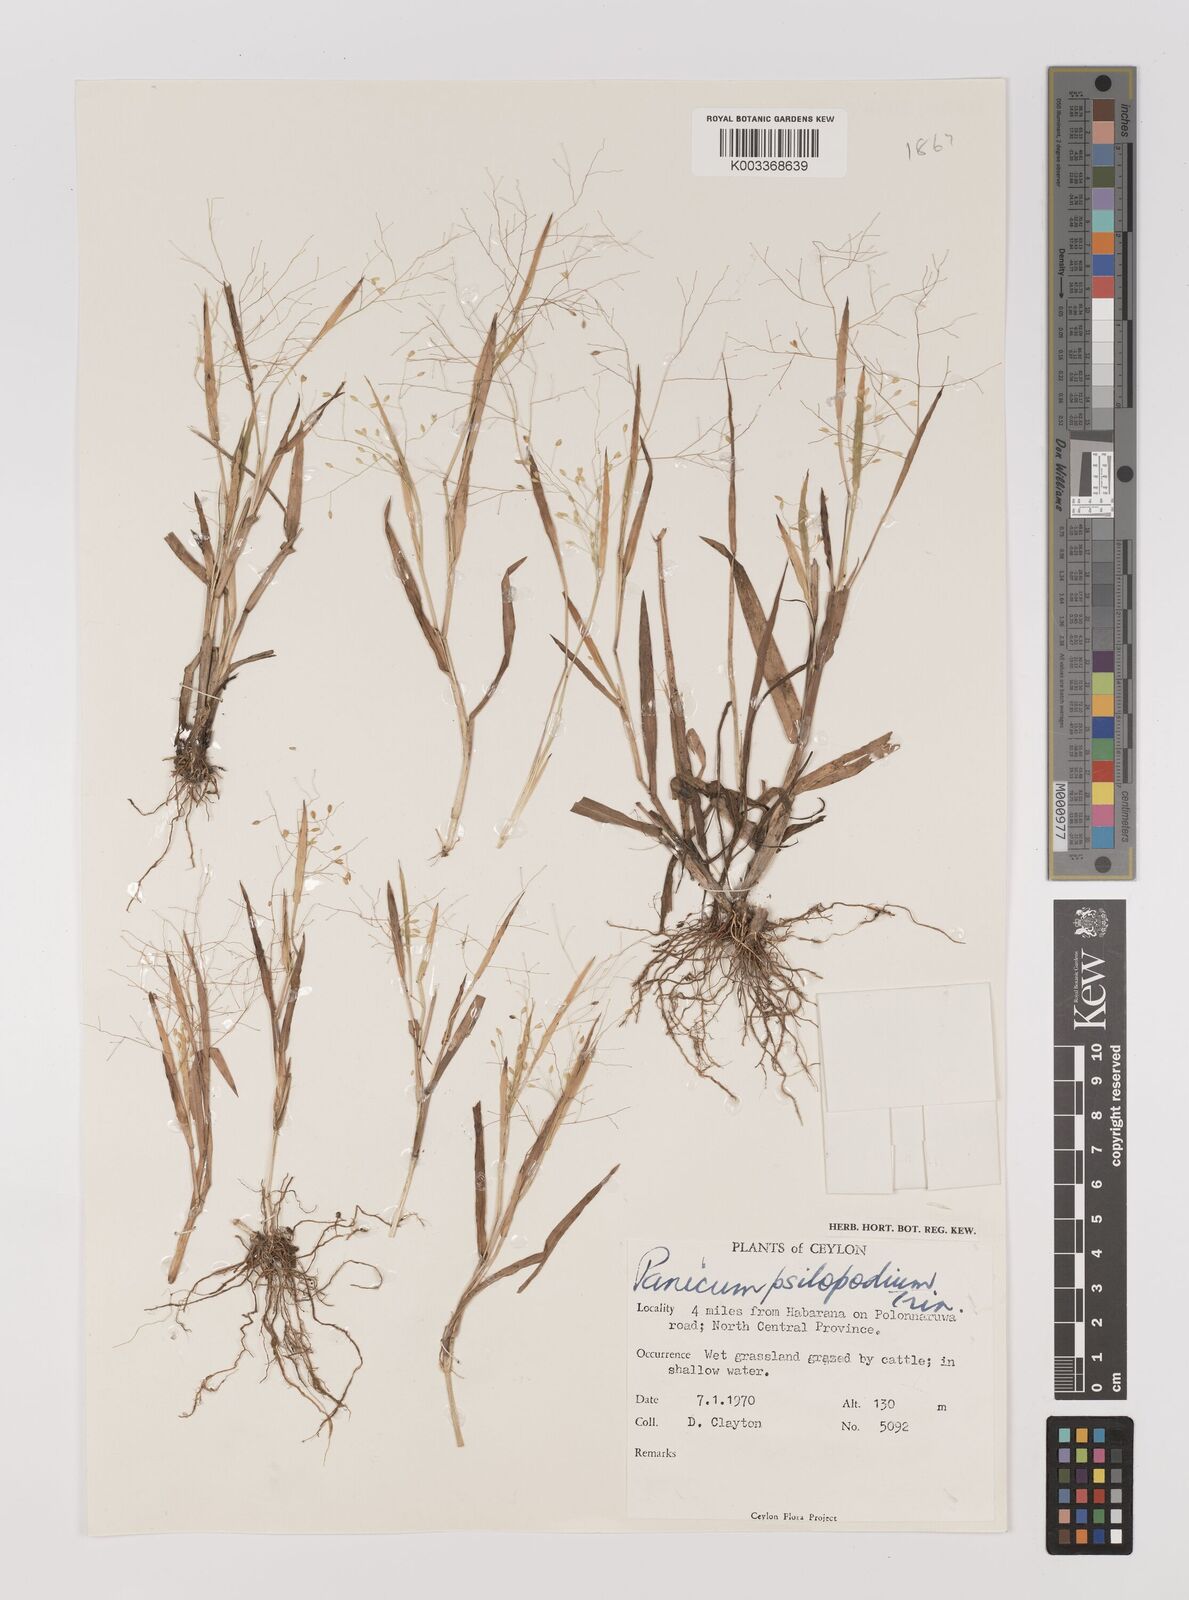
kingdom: Plantae
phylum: Tracheophyta
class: Liliopsida
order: Poales
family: Poaceae
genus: Panicum
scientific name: Panicum sumatrense
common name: Little millet
